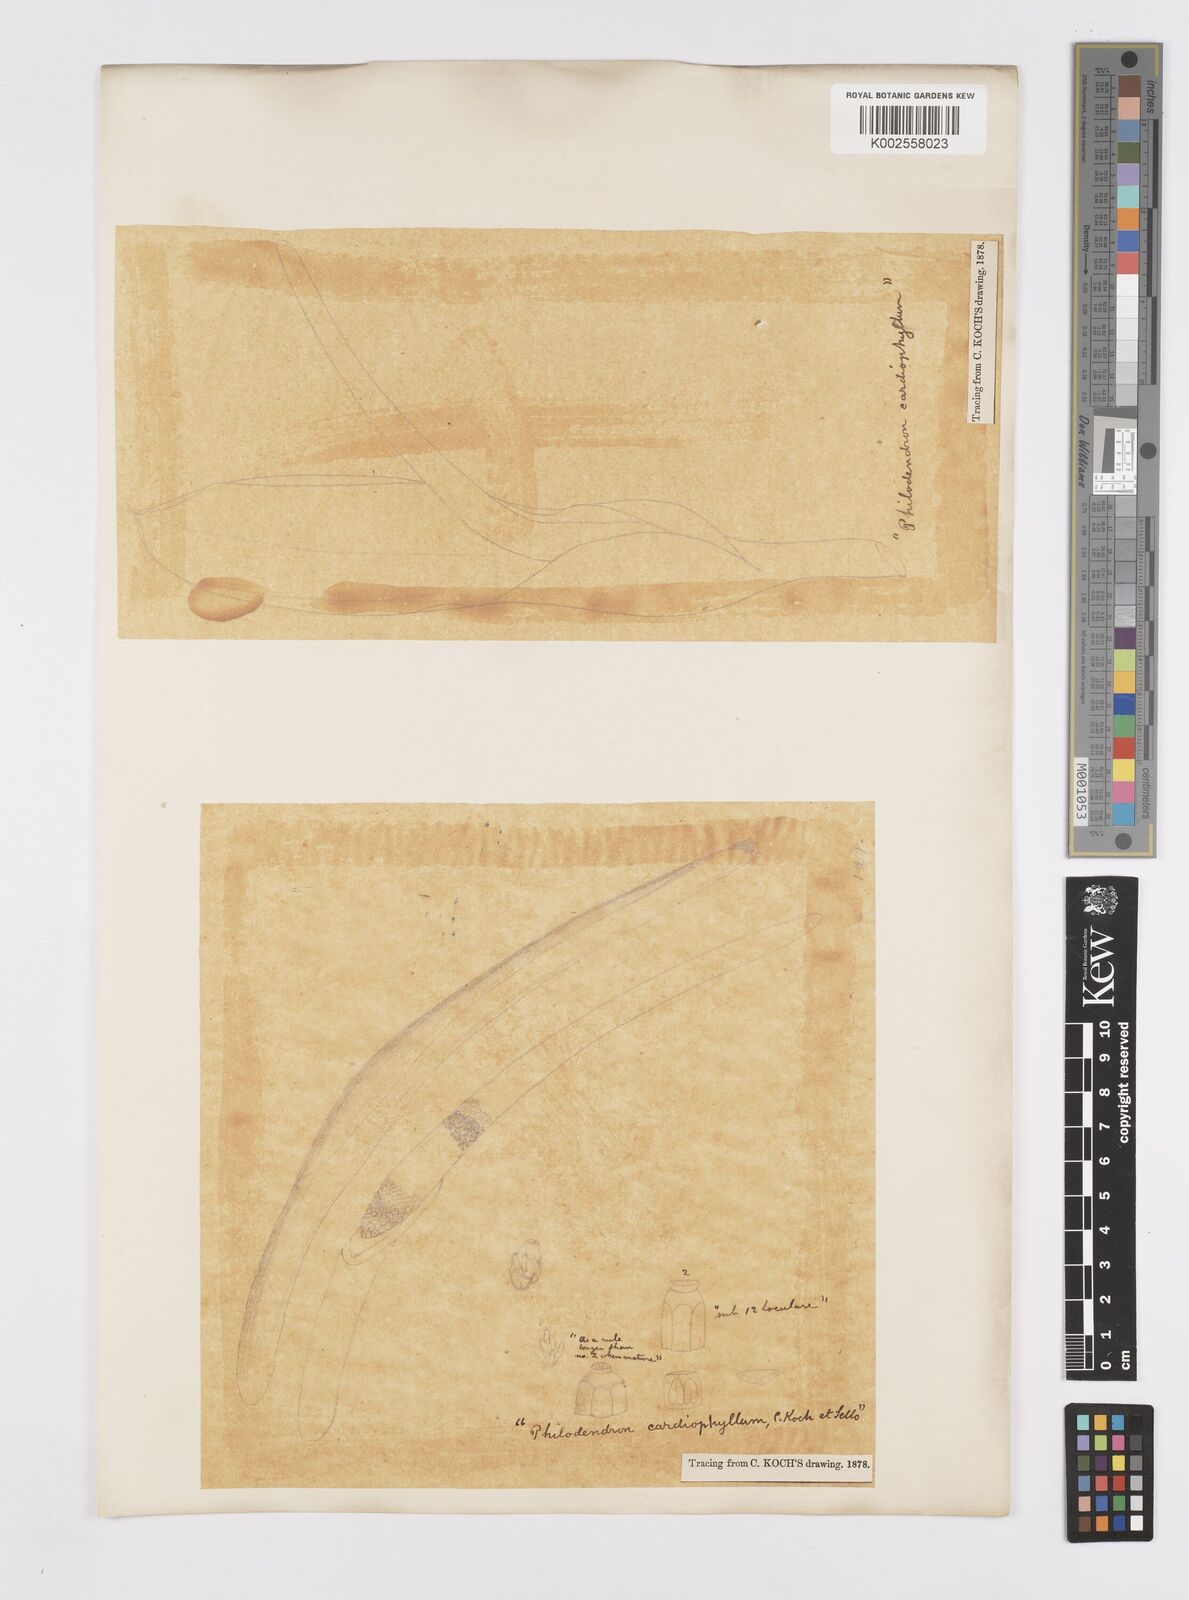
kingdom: Plantae
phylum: Tracheophyta
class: Liliopsida
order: Alismatales
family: Araceae
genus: Philodendron
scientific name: Philodendron eximium
